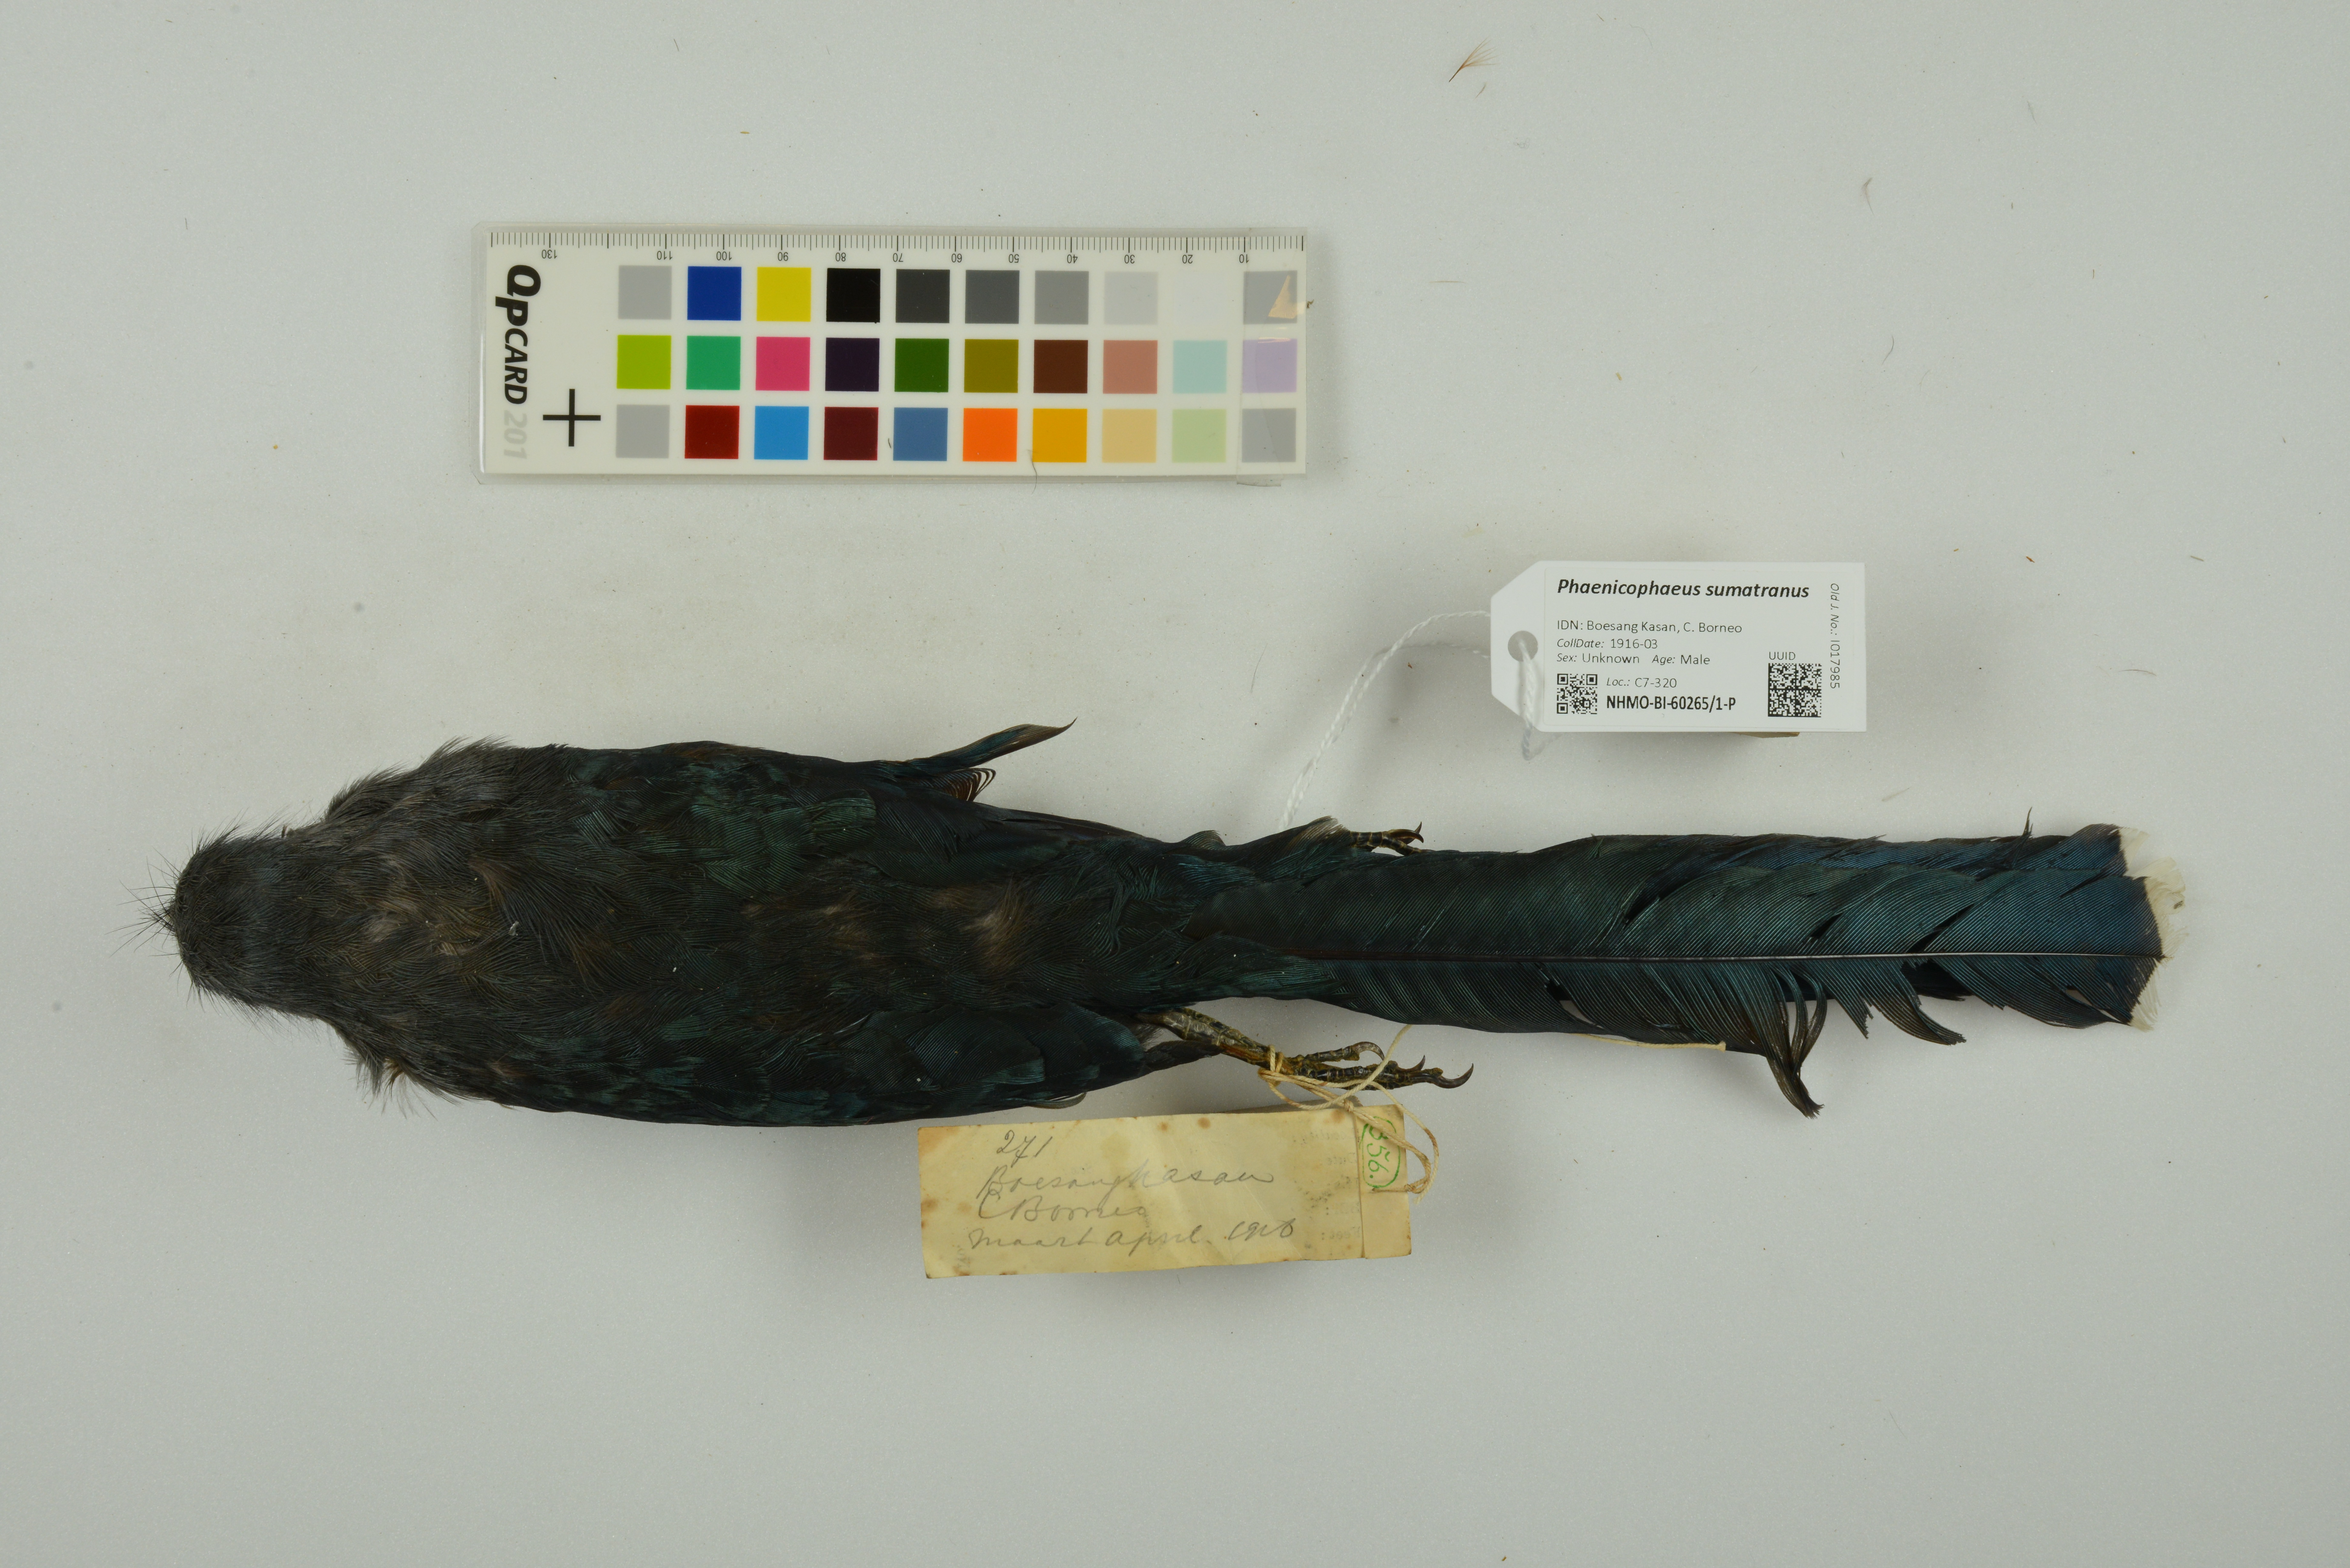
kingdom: Animalia
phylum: Chordata
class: Aves
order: Cuculiformes
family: Cuculidae
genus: Rhopodytes
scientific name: Rhopodytes sumatranus
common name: Rufous-bellied malcoha
